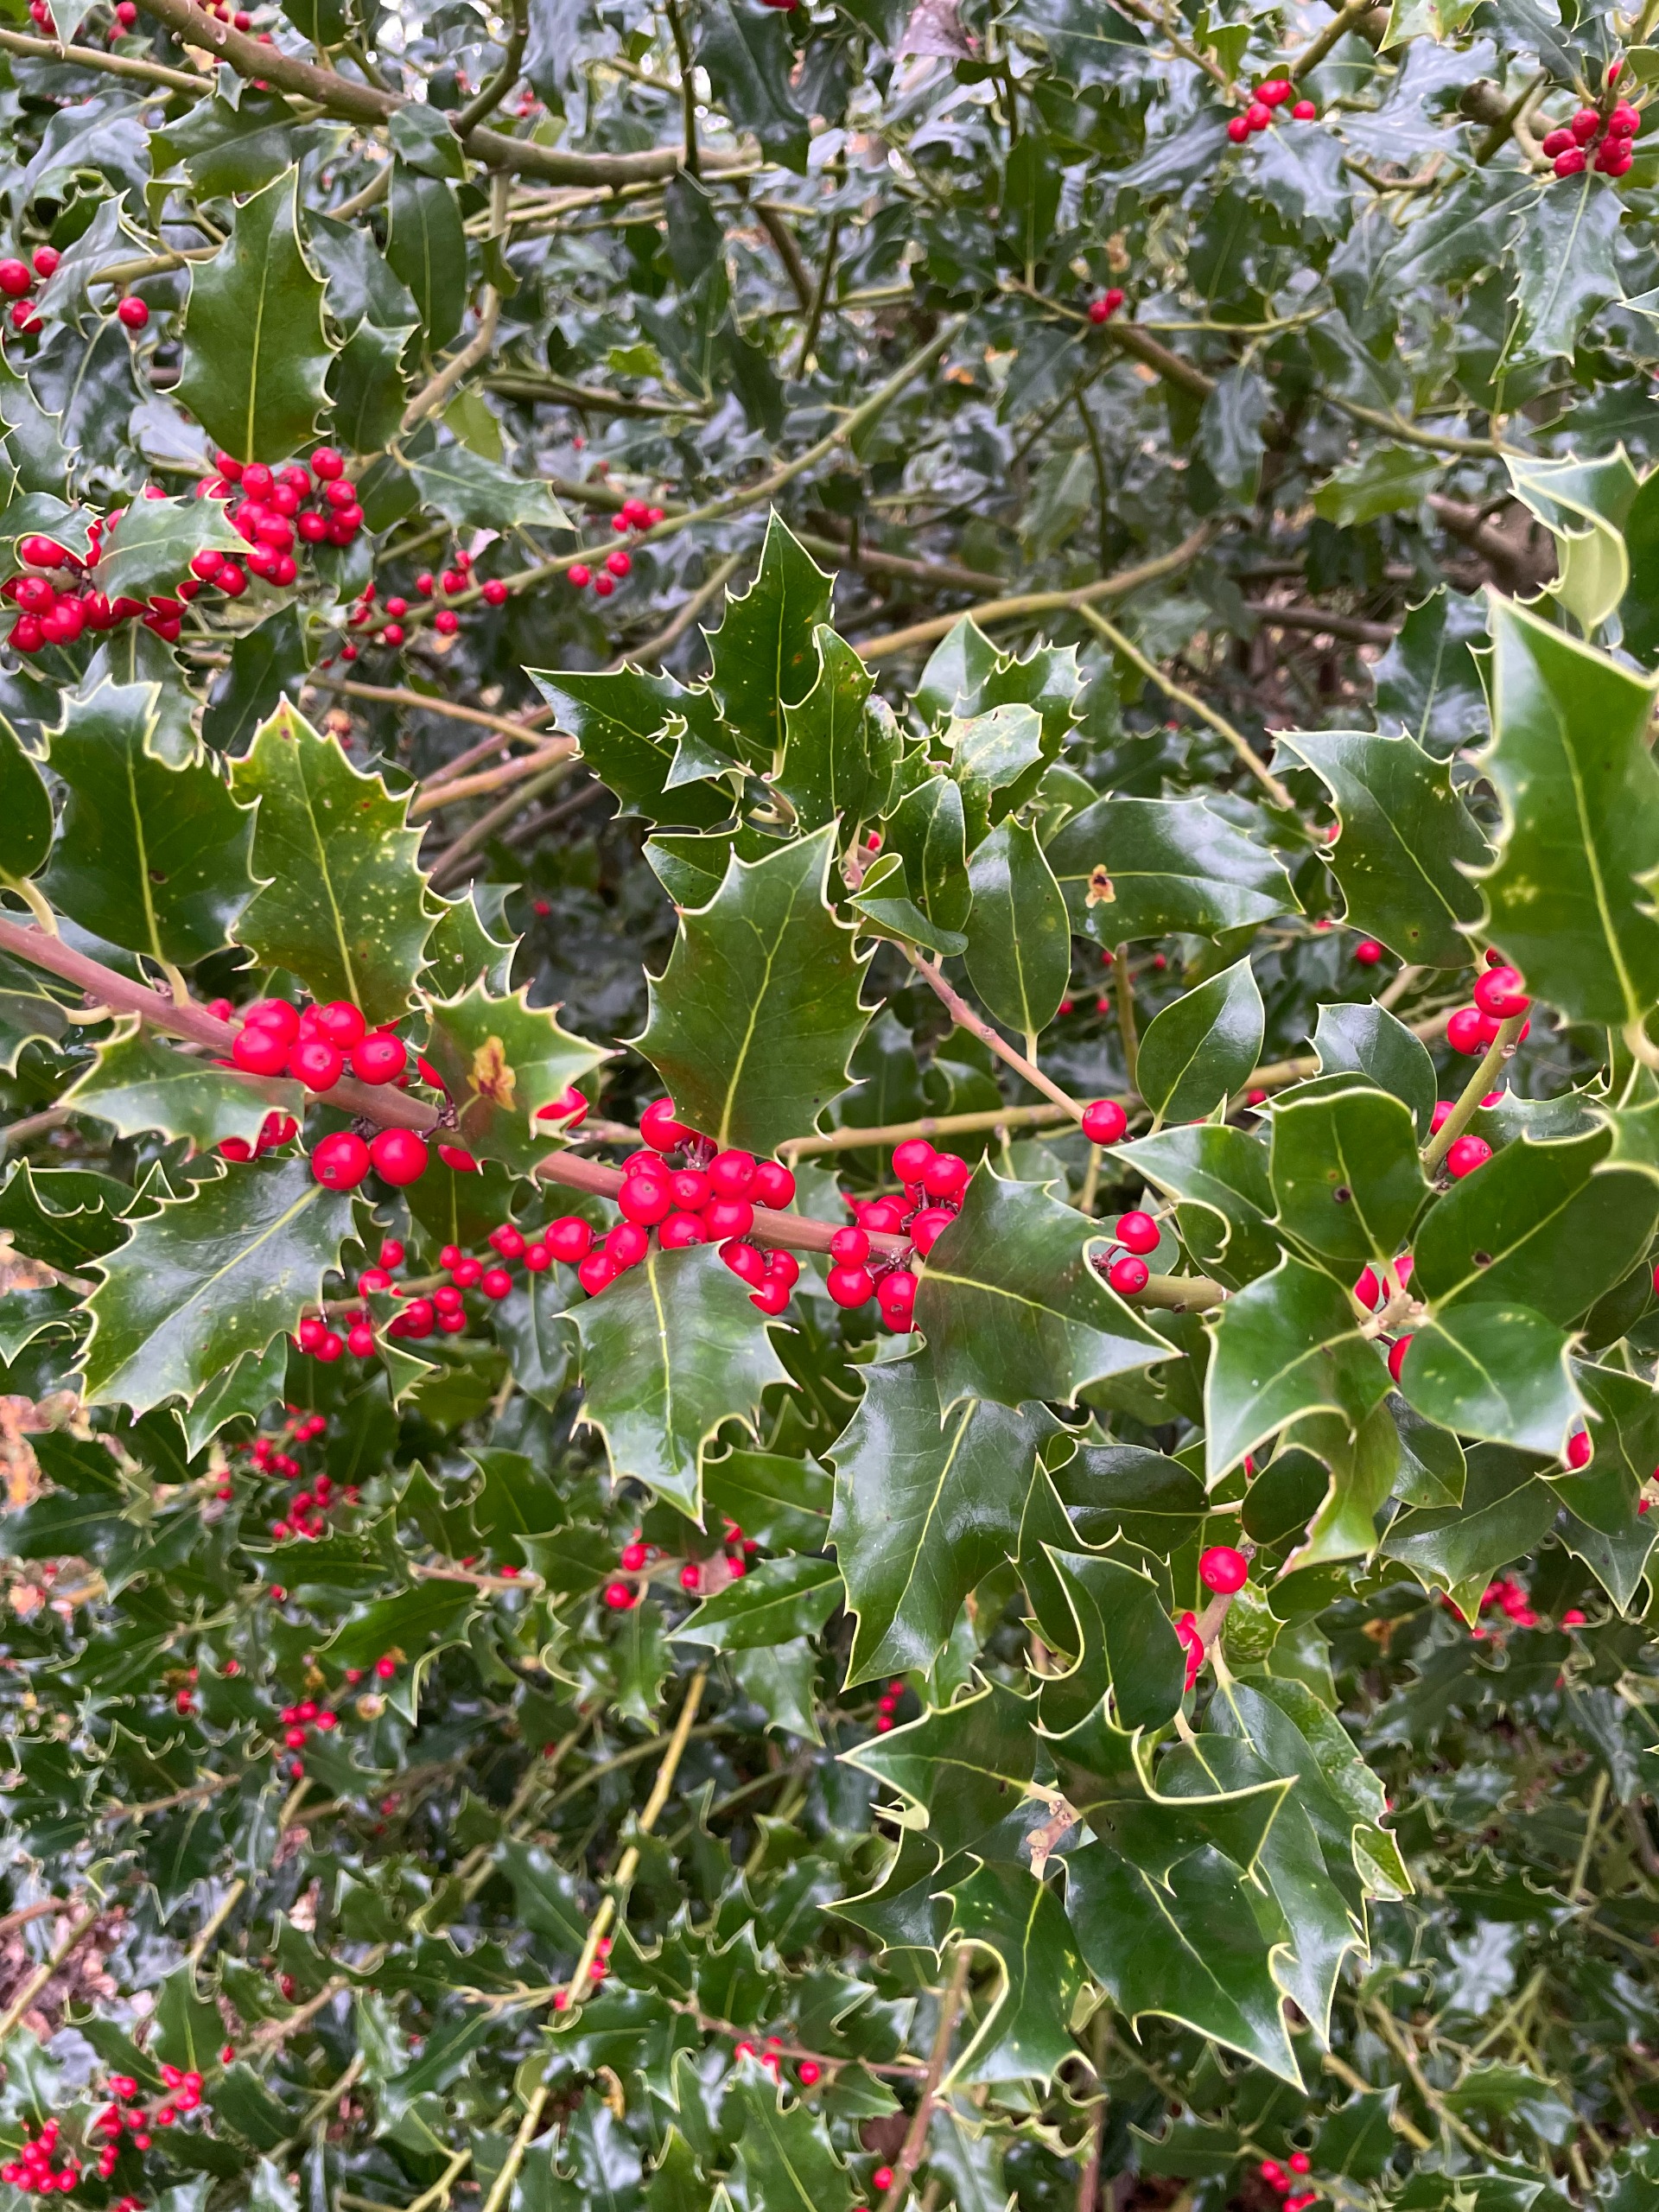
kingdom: Plantae
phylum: Tracheophyta
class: Magnoliopsida
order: Aquifoliales
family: Aquifoliaceae
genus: Ilex
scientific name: Ilex aquifolium
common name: Kristtorn
